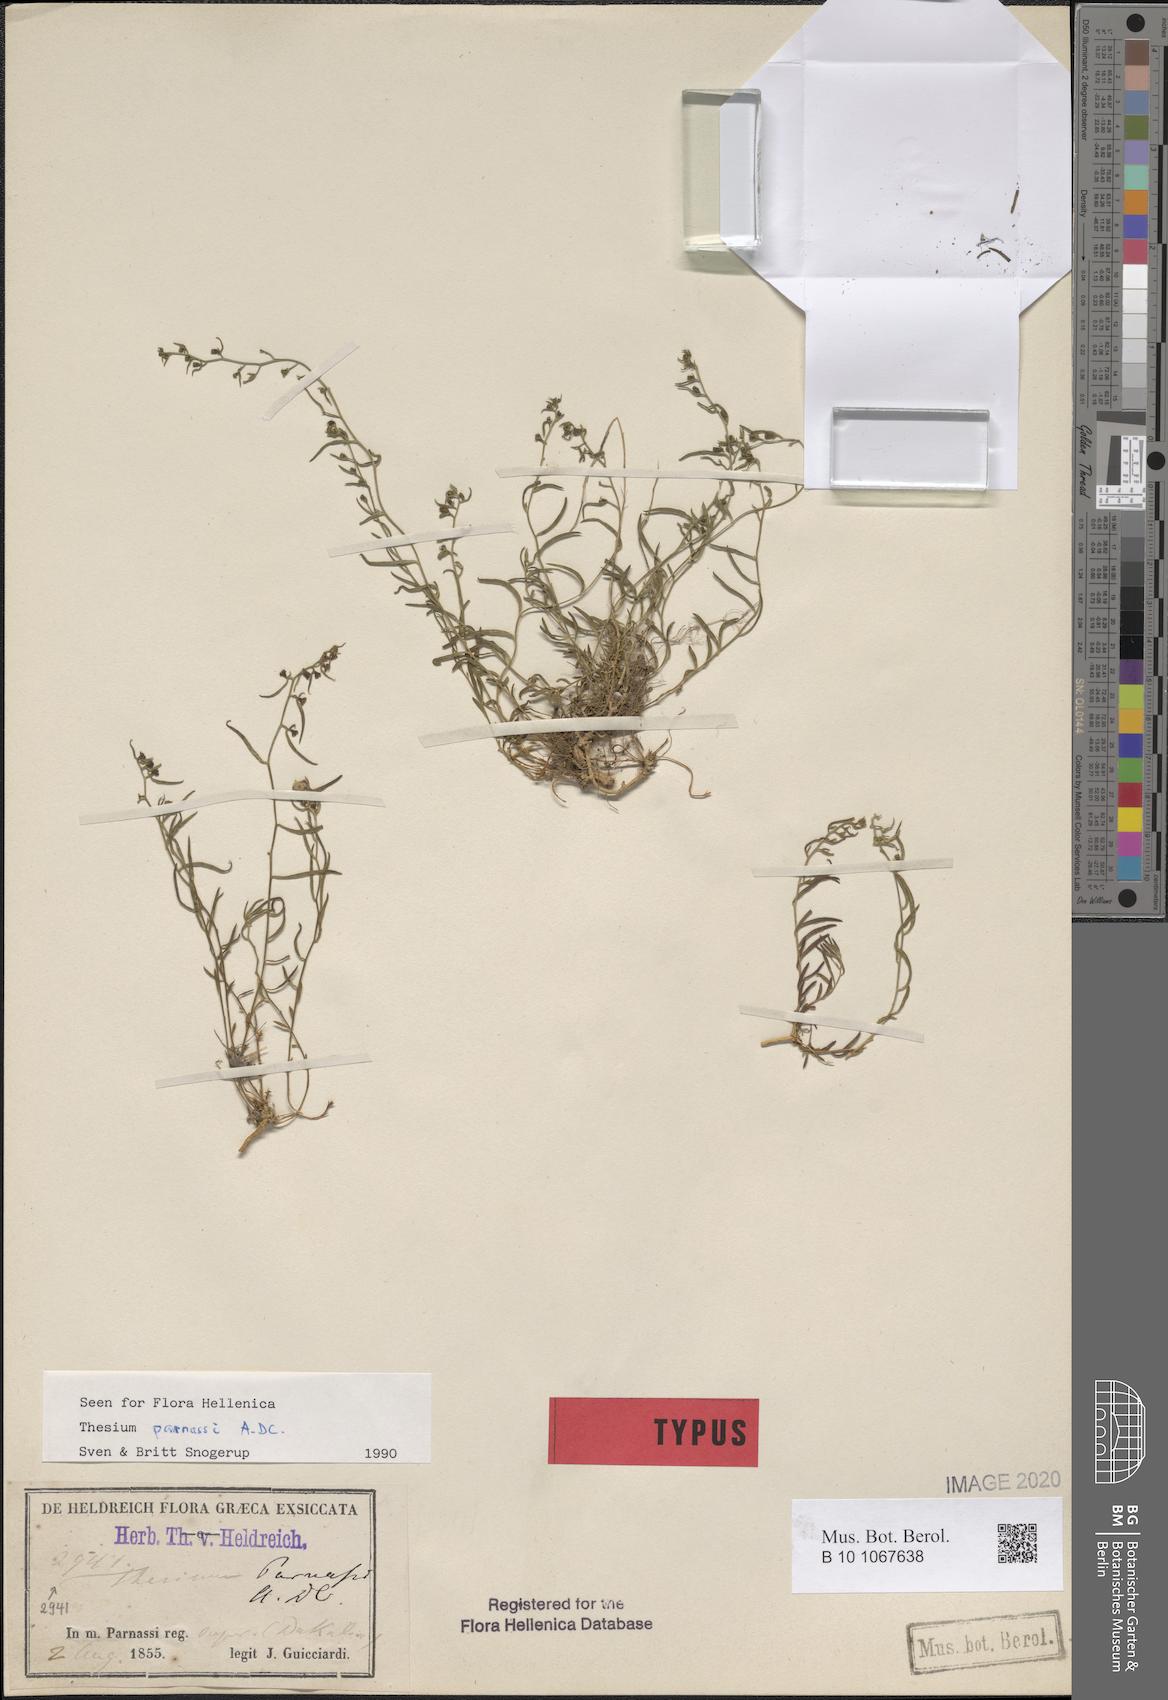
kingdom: Plantae
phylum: Tracheophyta
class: Magnoliopsida
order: Santalales
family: Thesiaceae
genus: Thesium
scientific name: Thesium parnassi
